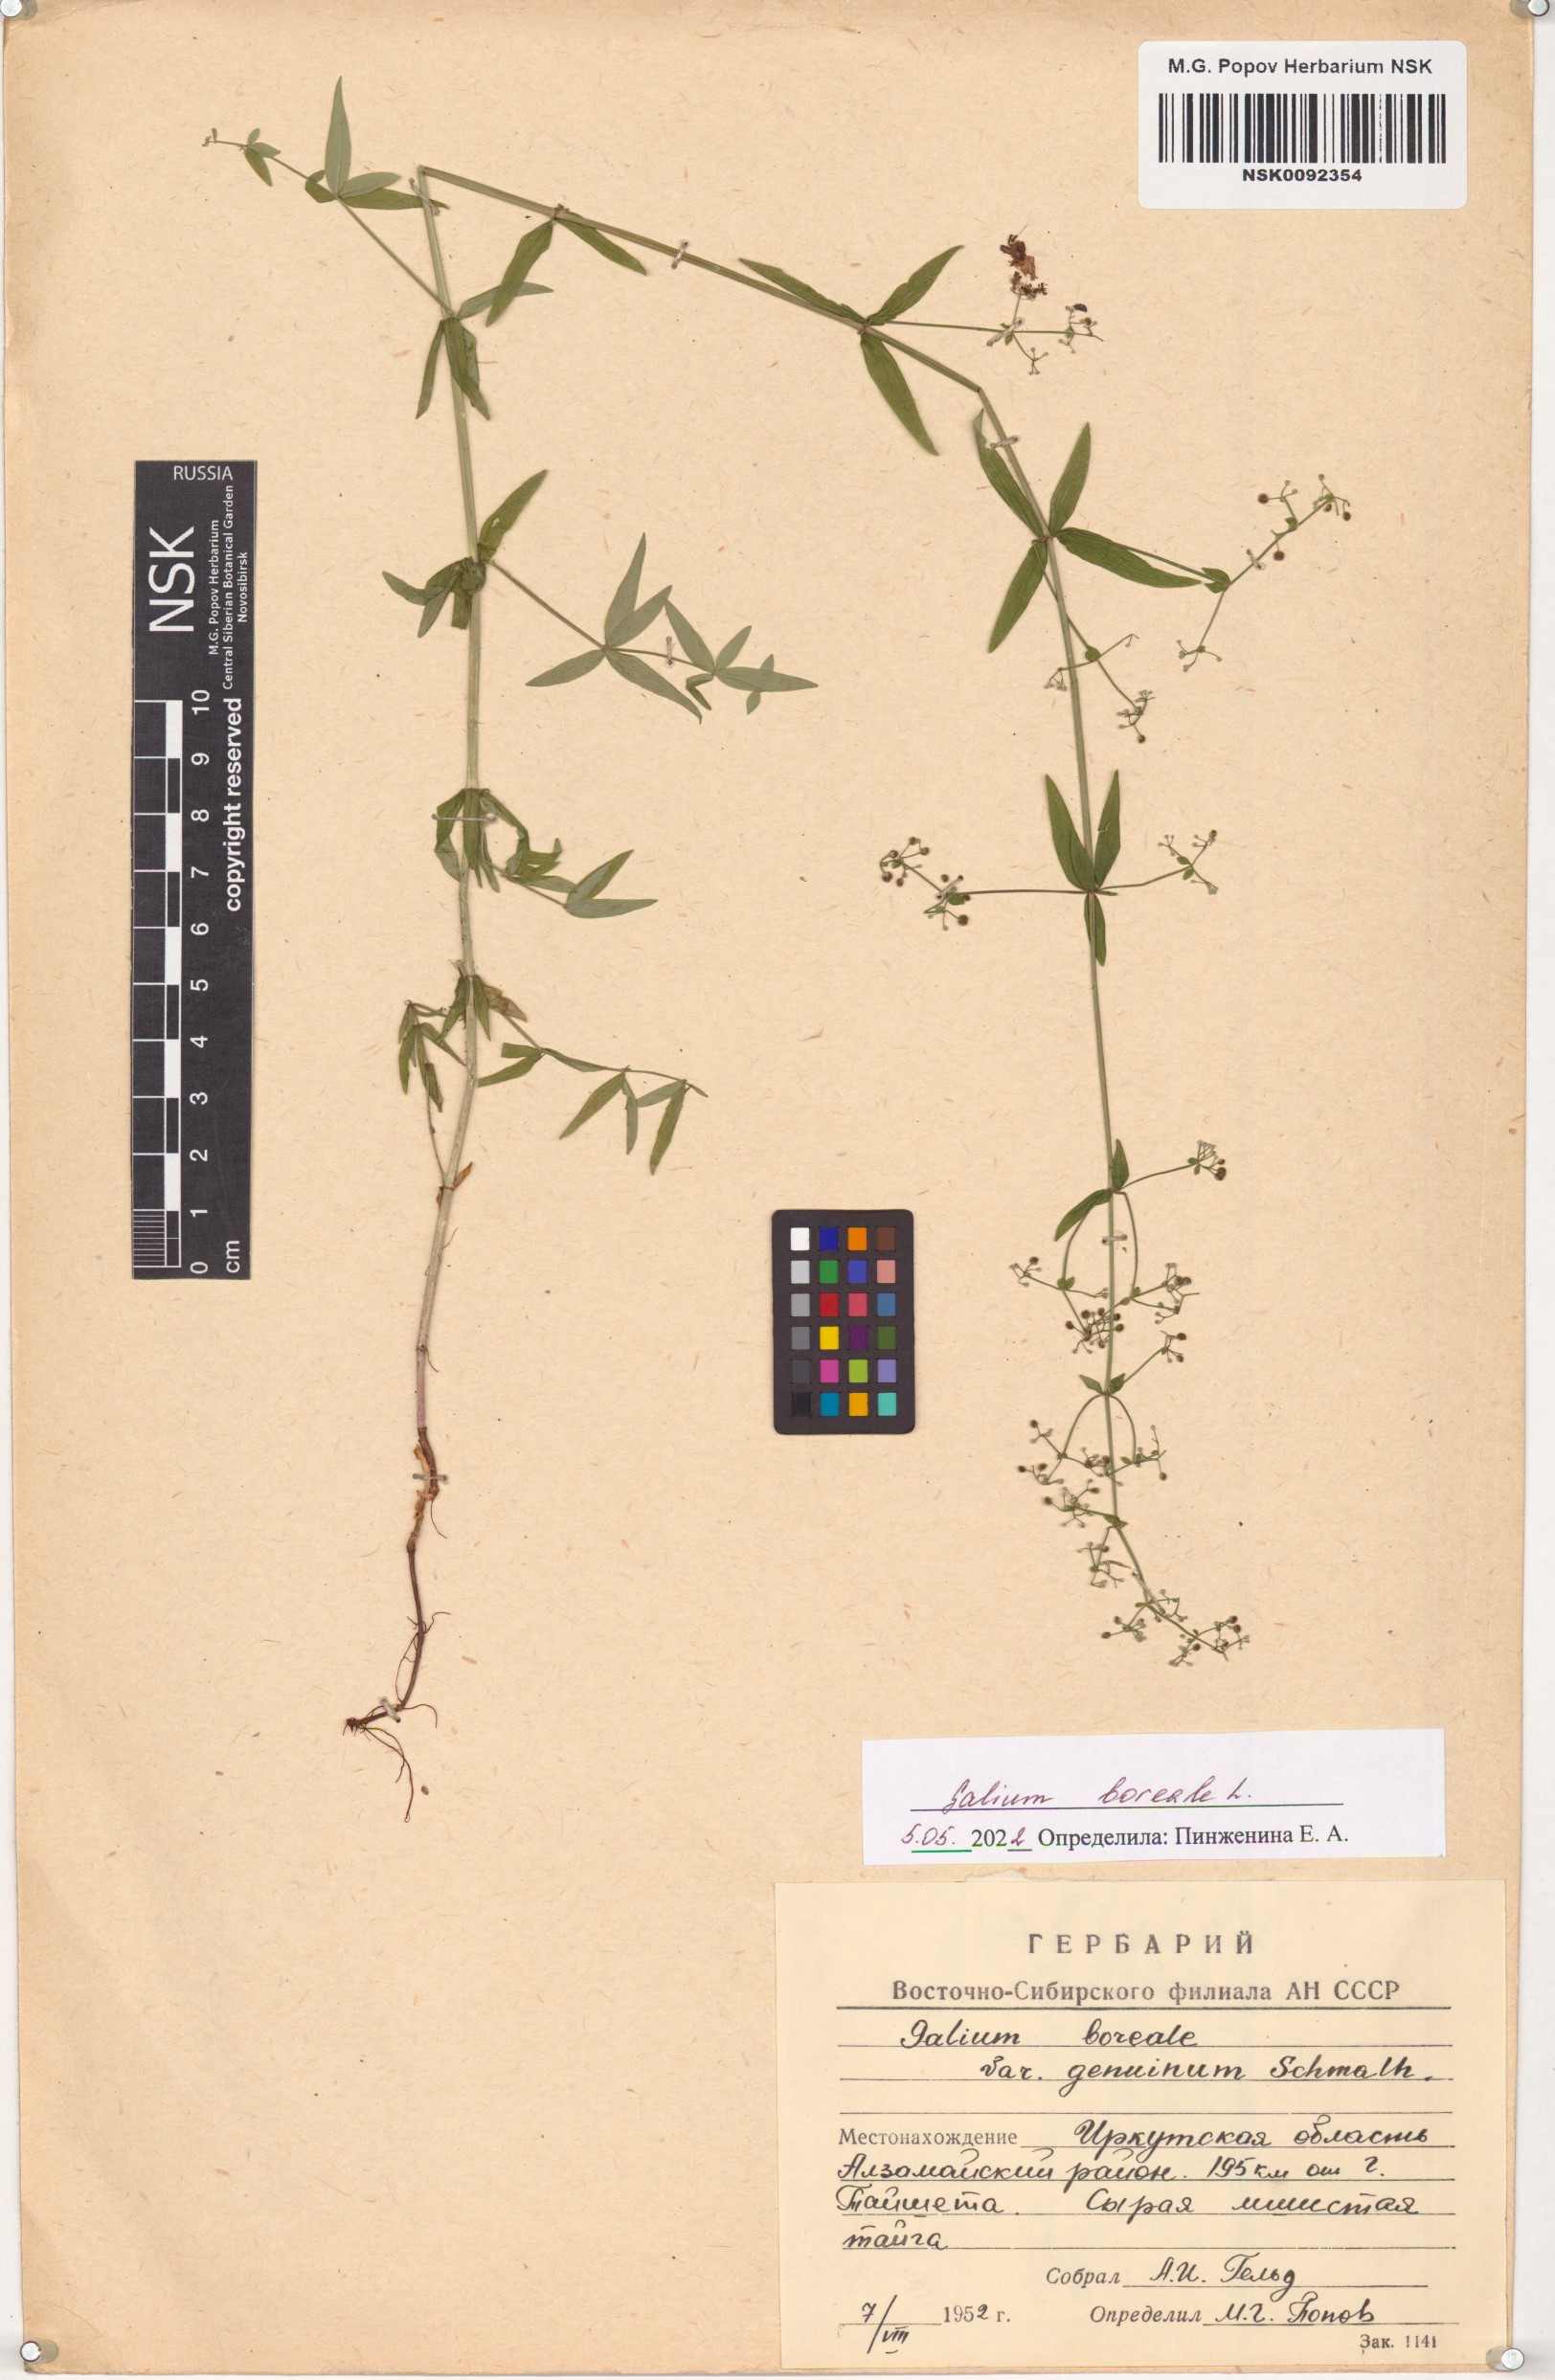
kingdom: Plantae
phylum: Tracheophyta
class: Magnoliopsida
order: Gentianales
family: Rubiaceae
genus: Galium
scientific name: Galium boreale
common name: Northern bedstraw
